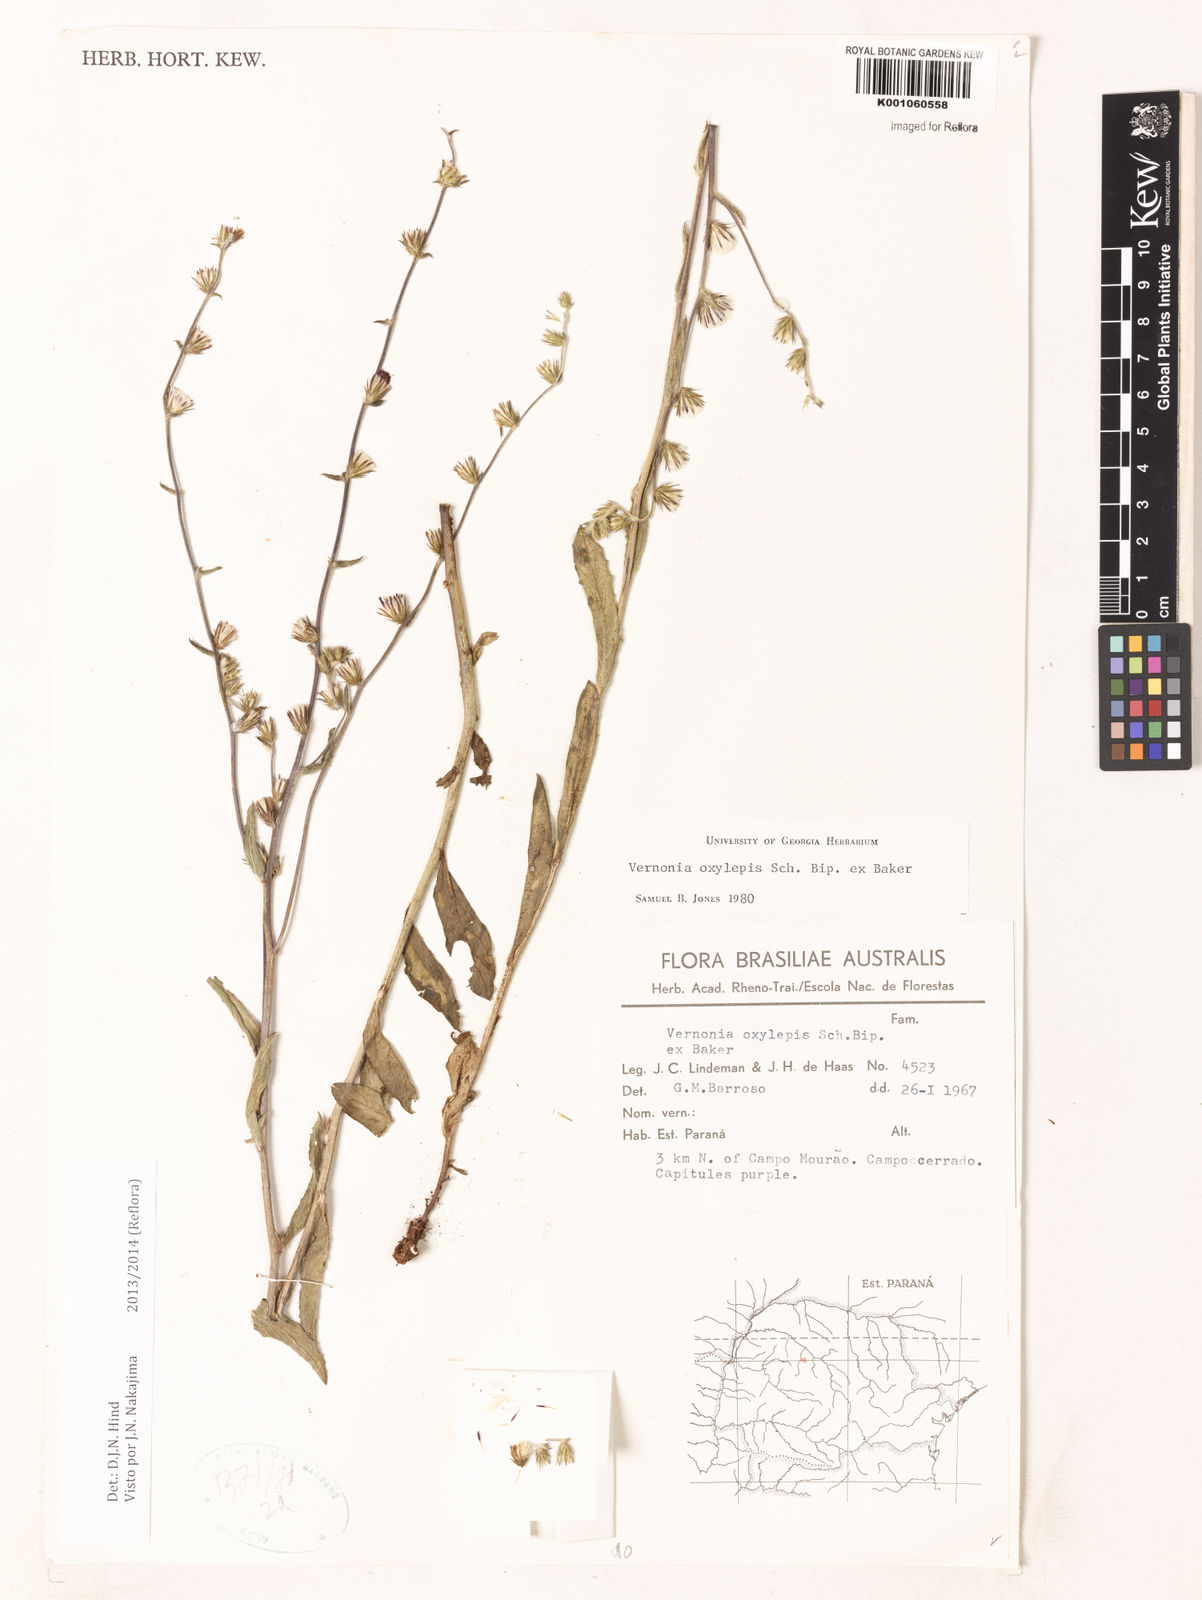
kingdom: Plantae
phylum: Tracheophyta
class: Magnoliopsida
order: Asterales
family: Asteraceae
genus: Lepidaploa
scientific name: Lepidaploa psilostachya
